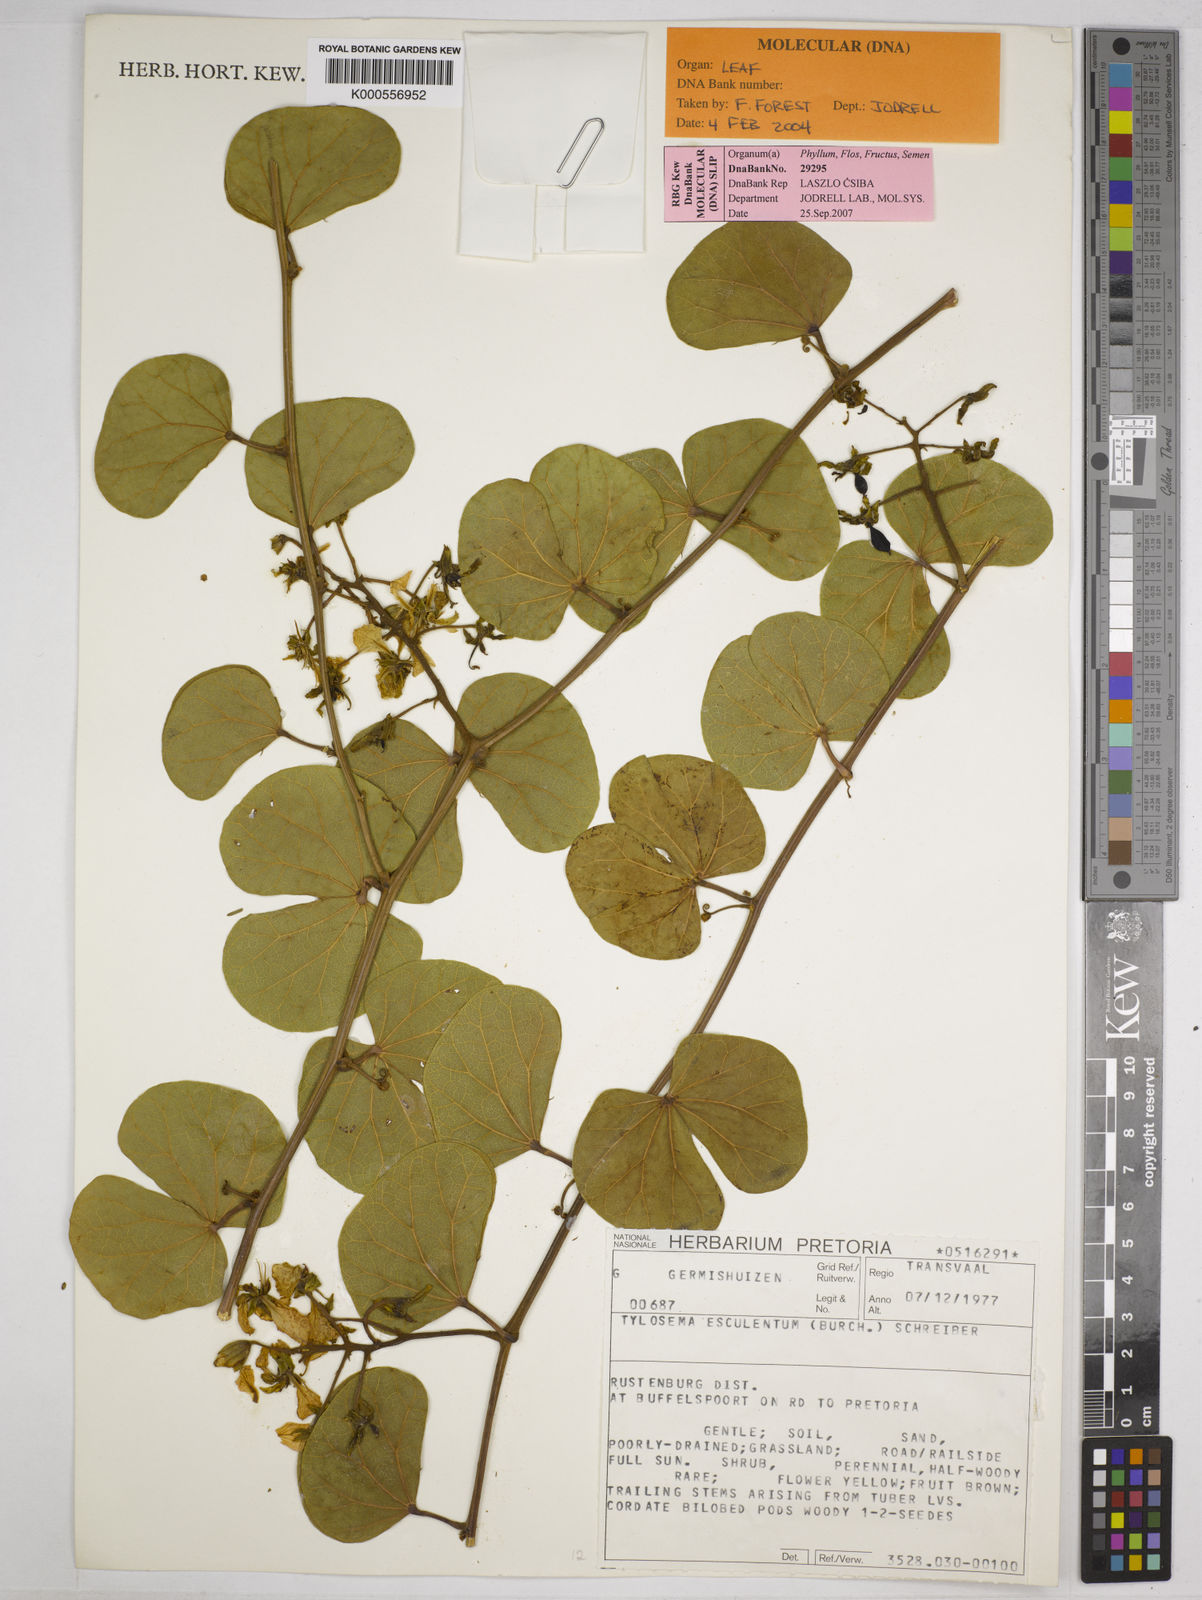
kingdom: Plantae
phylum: Tracheophyta
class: Magnoliopsida
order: Fabales
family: Fabaceae
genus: Tylosema
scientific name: Tylosema esculentum
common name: Marama-bean
